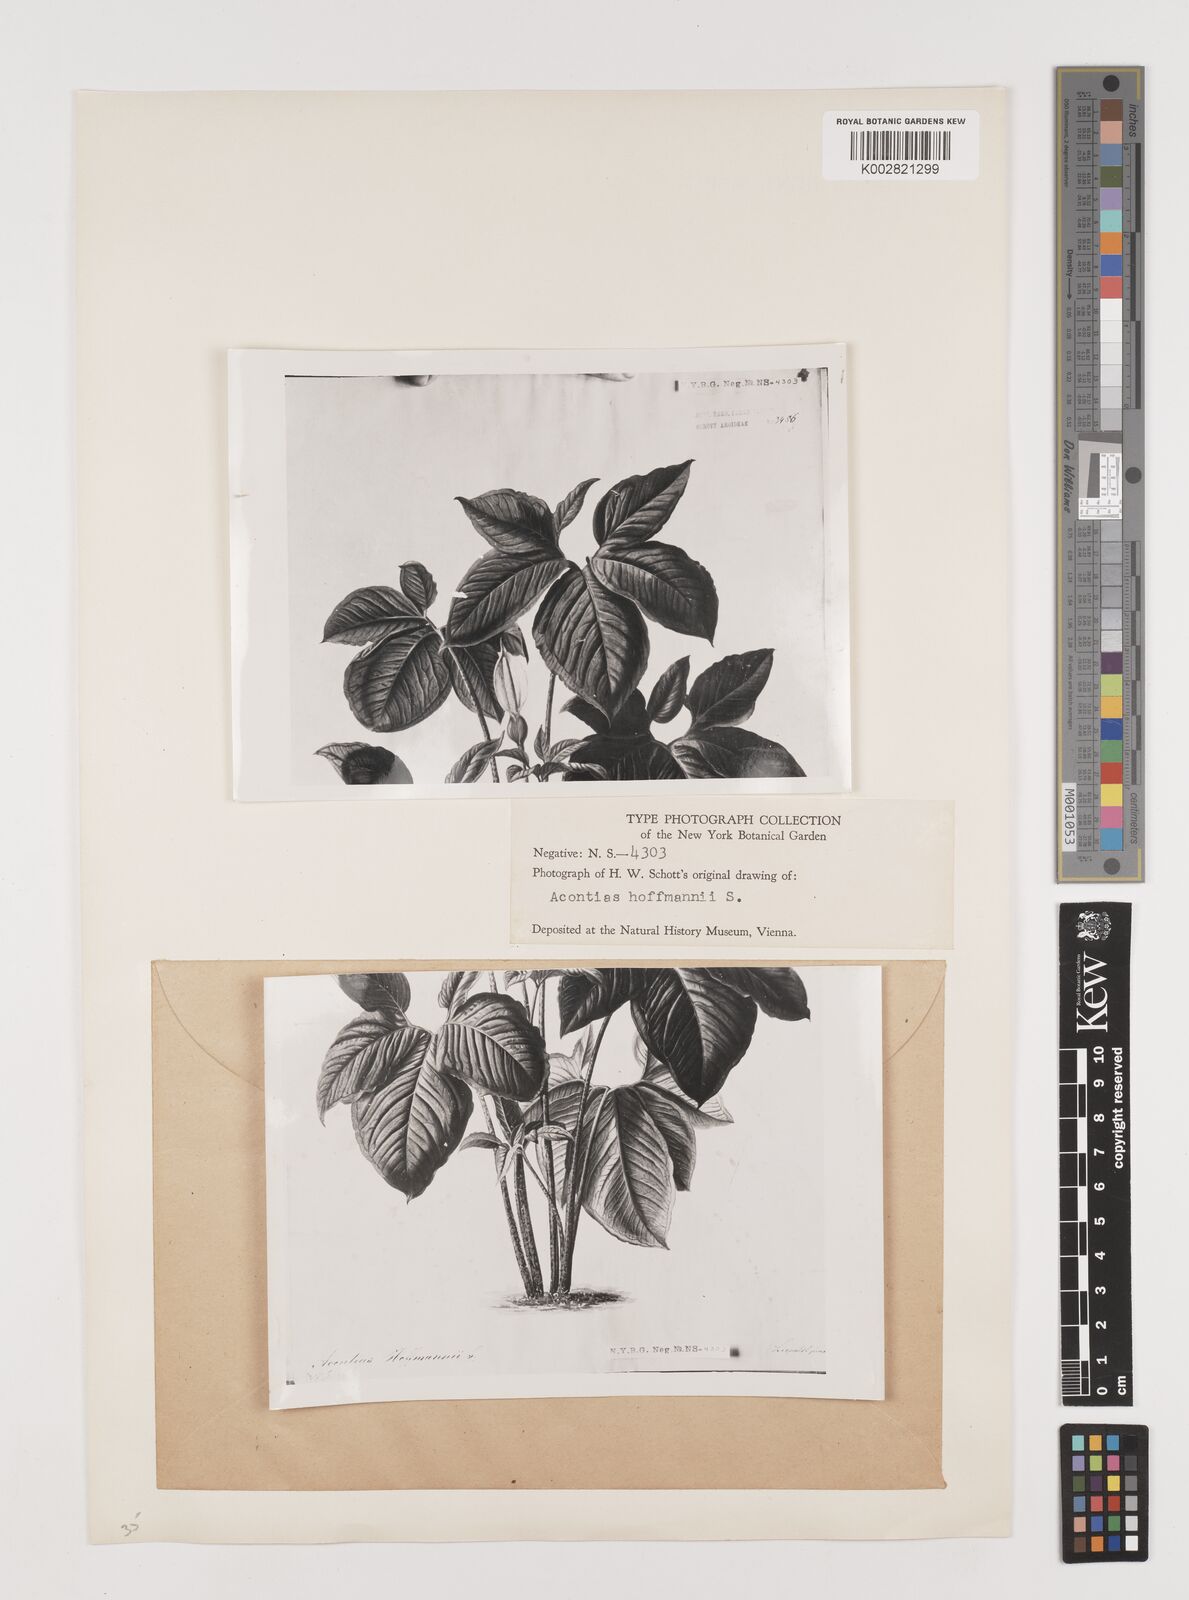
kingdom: Plantae
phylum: Tracheophyta
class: Liliopsida
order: Alismatales
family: Araceae
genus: Xanthosoma
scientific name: Xanthosoma wendlandii
